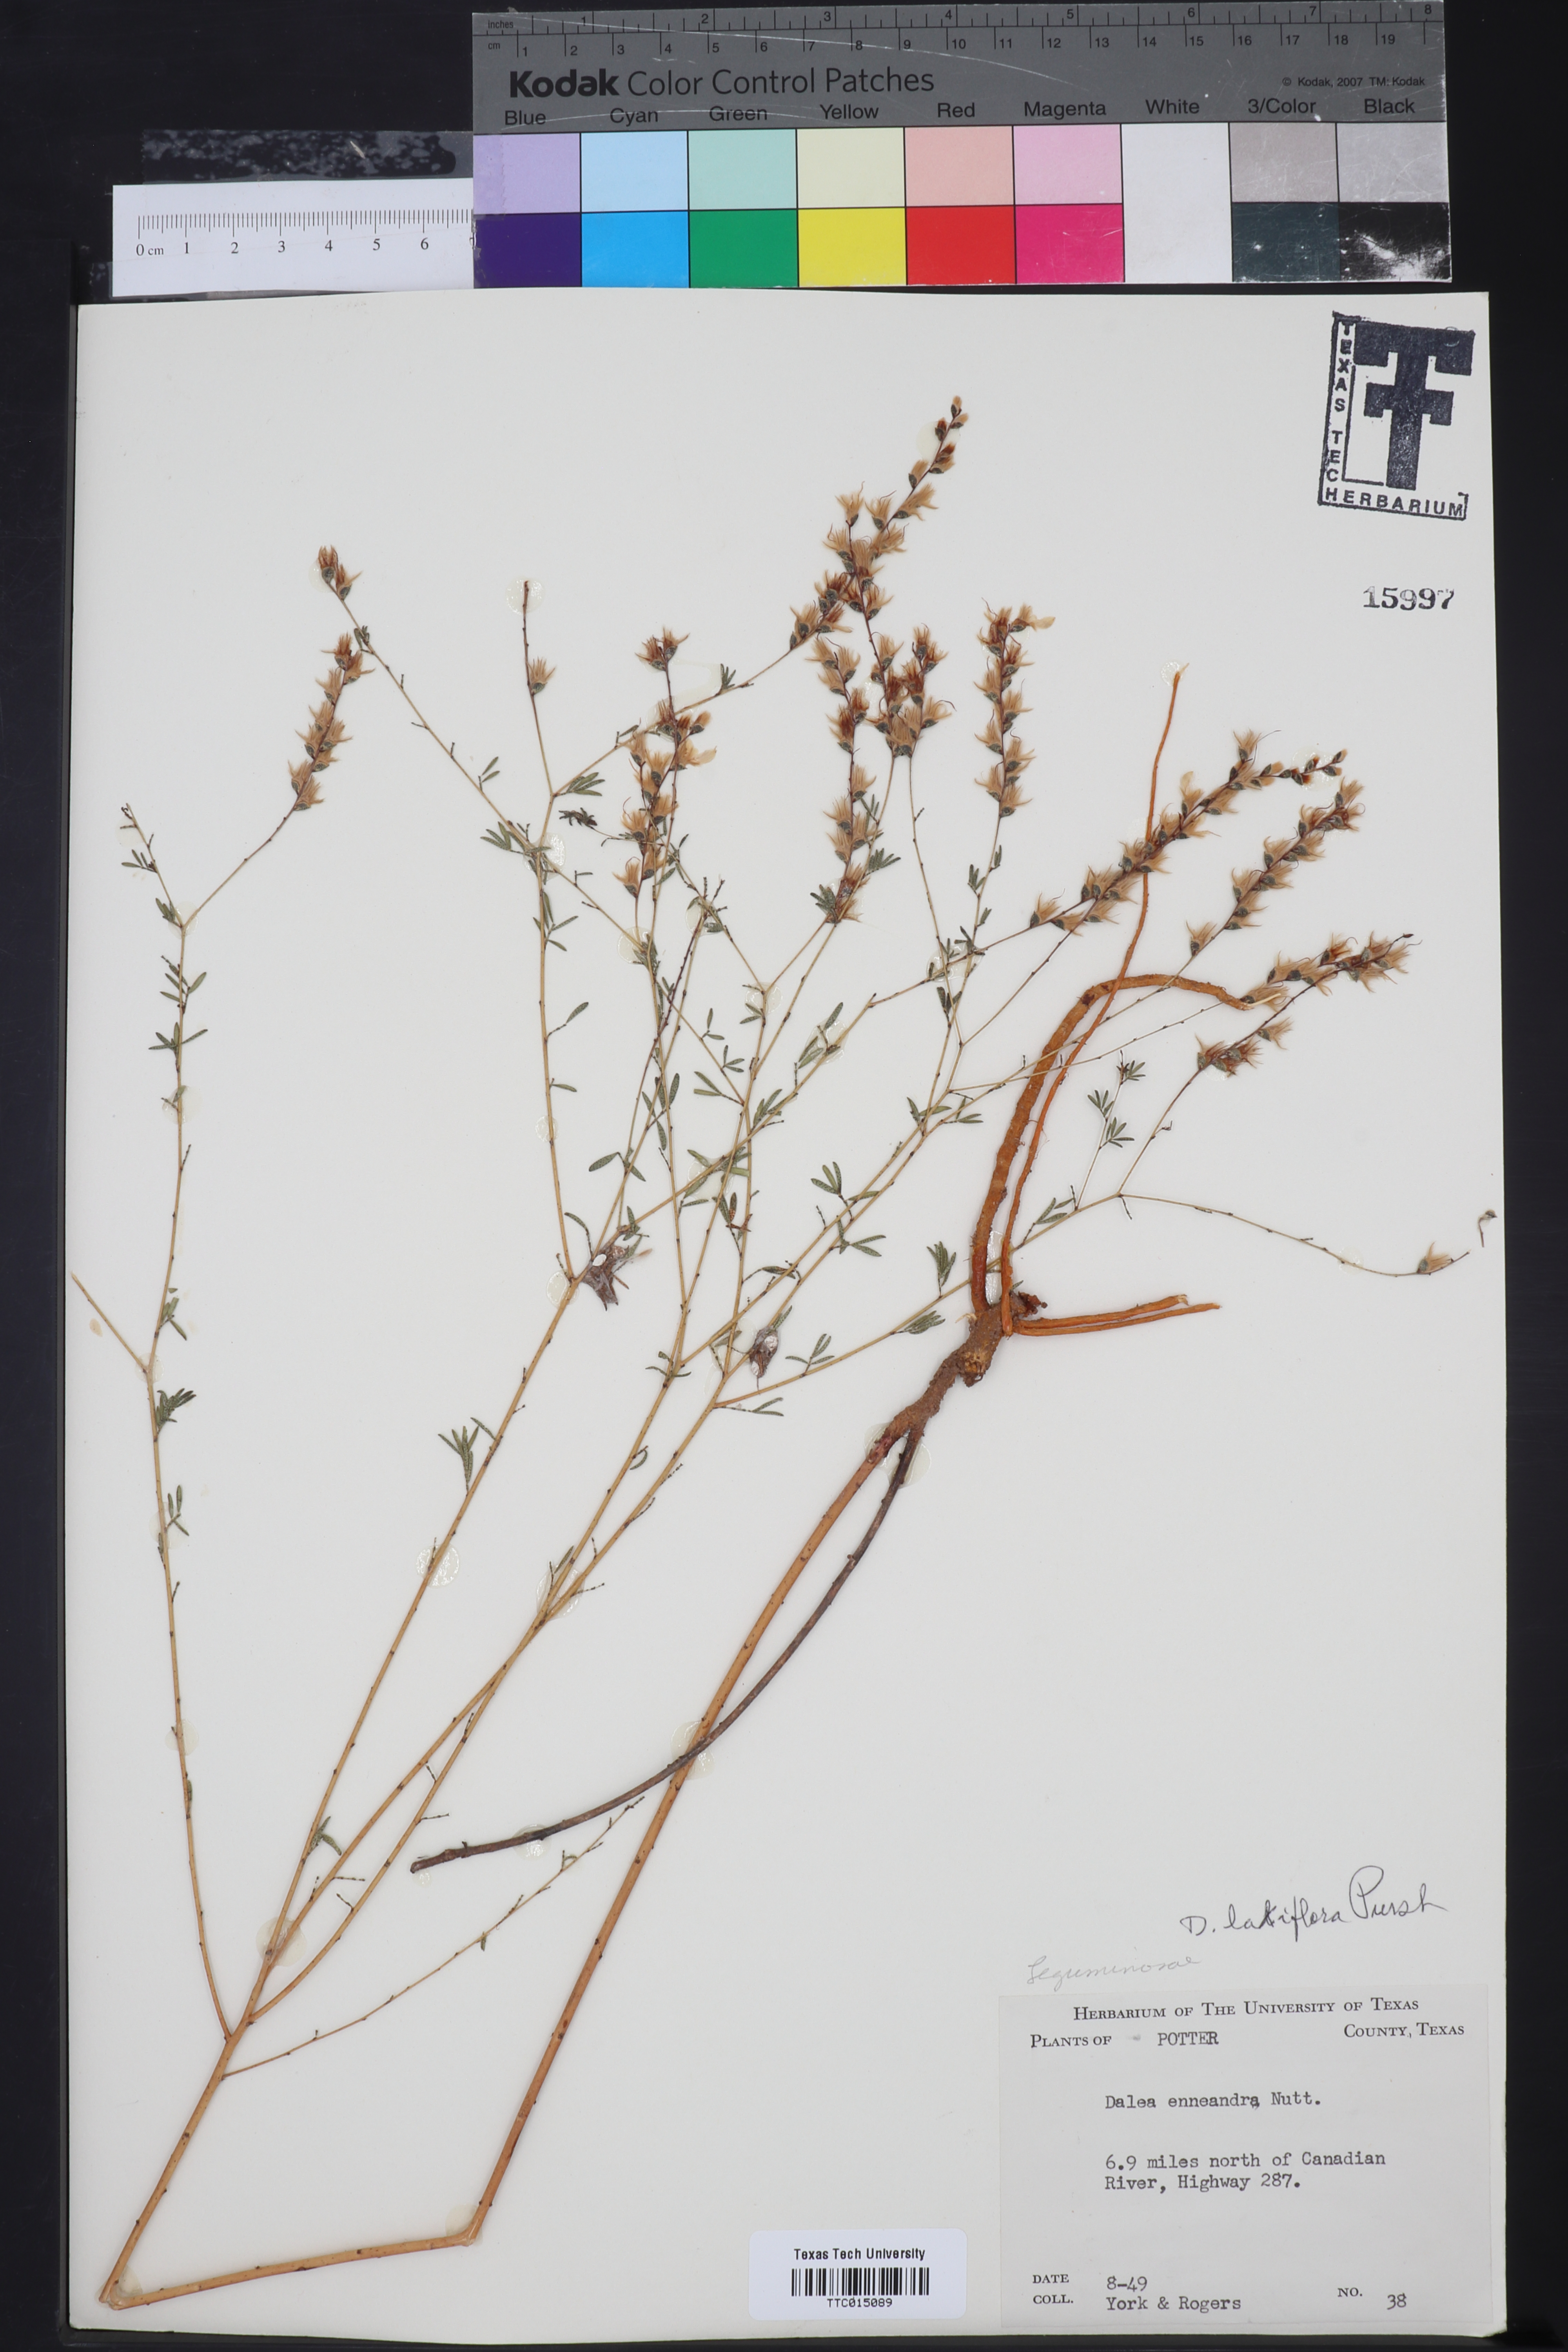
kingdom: Plantae
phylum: Tracheophyta
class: Magnoliopsida
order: Fabales
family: Fabaceae
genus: Dalea
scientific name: Dalea hegewischiana
